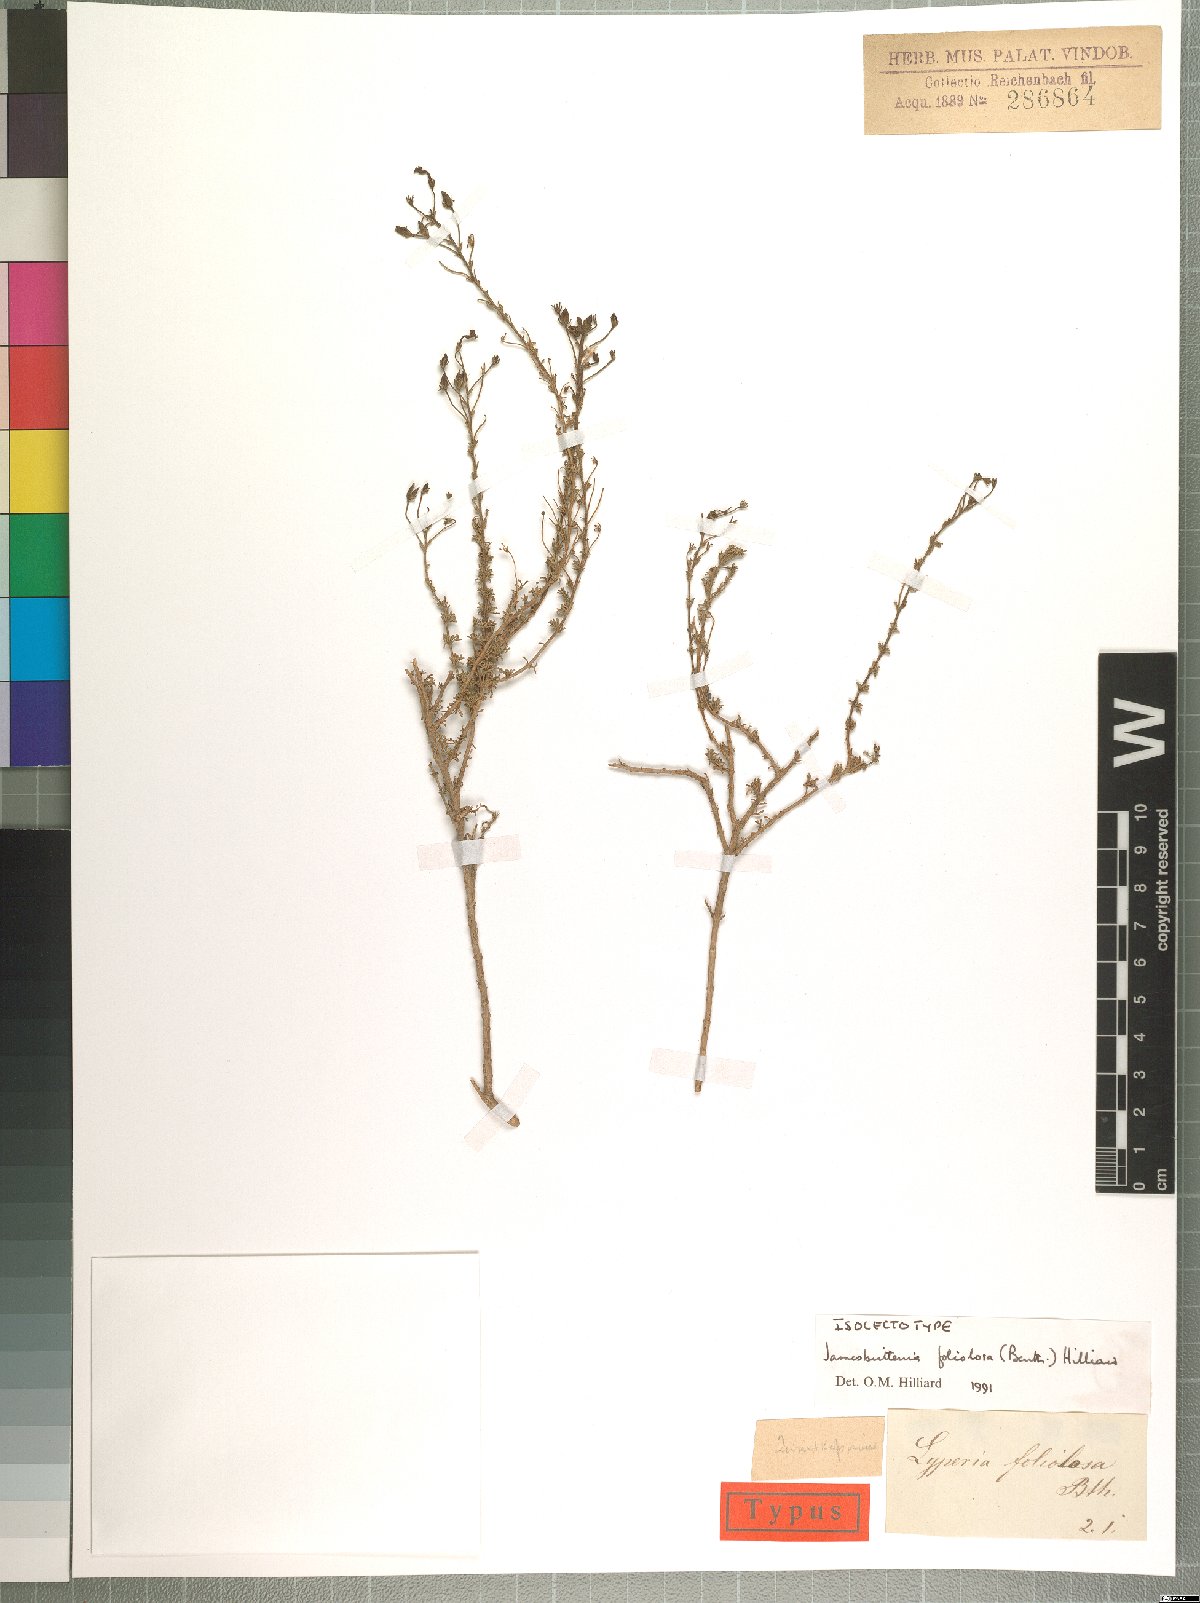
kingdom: Plantae
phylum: Tracheophyta
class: Magnoliopsida
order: Lamiales
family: Scrophulariaceae
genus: Jamesbrittenia
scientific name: Jamesbrittenia foliolosa
